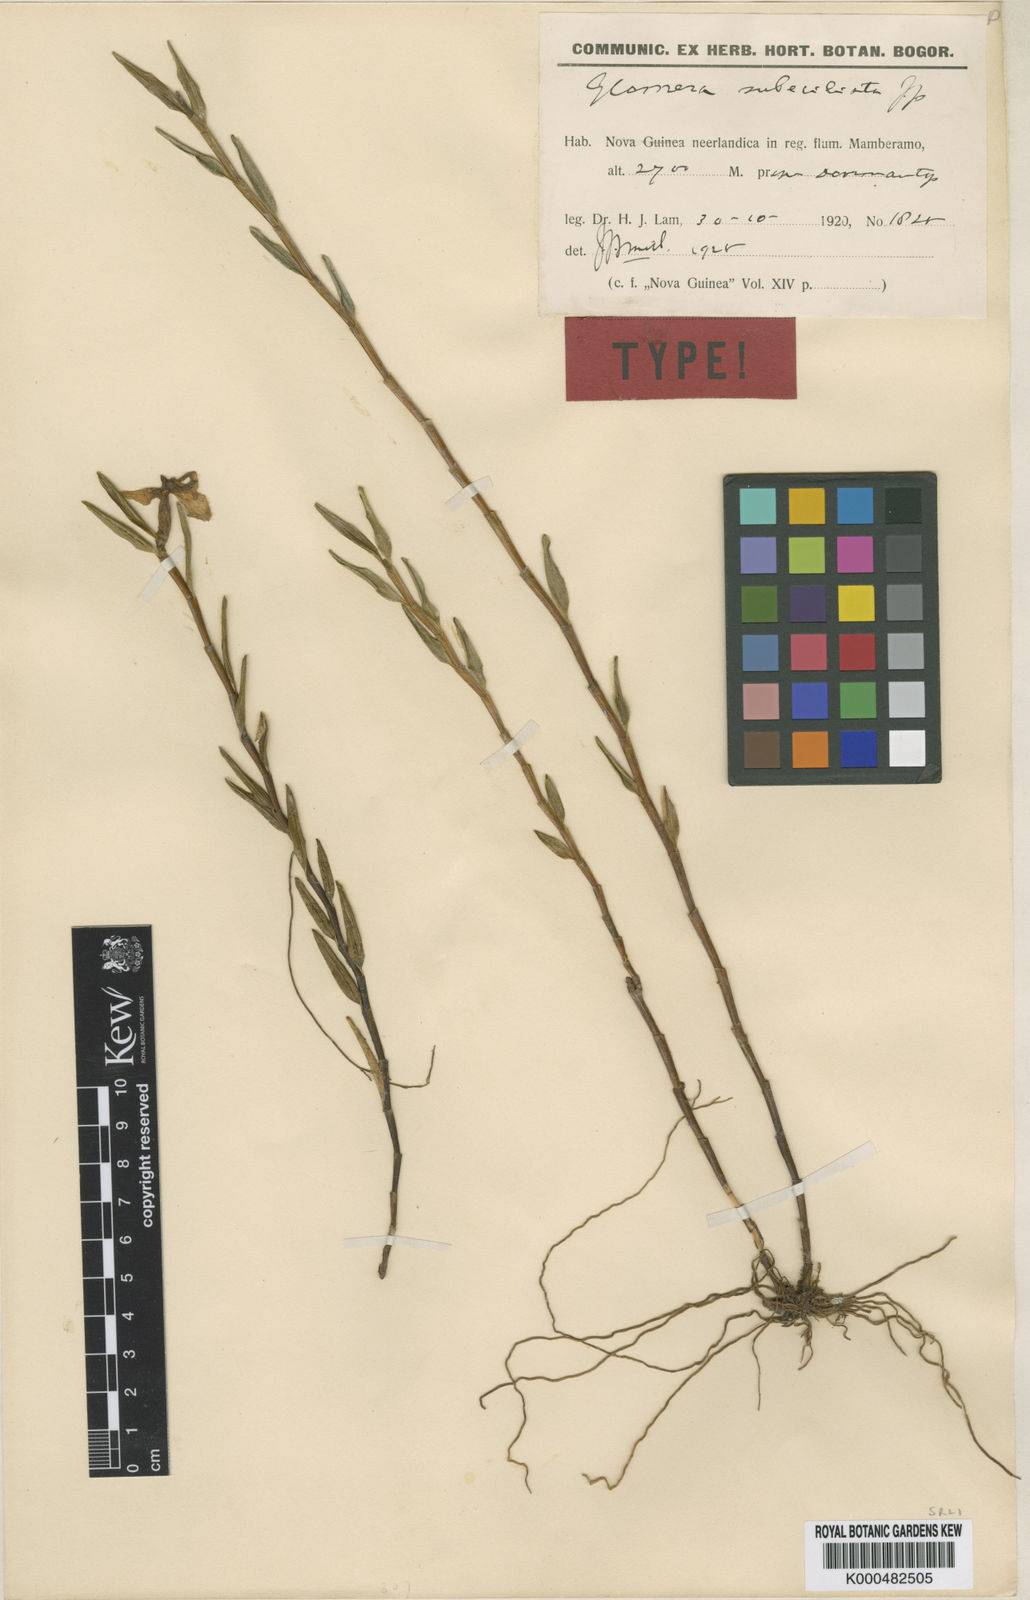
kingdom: Plantae
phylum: Tracheophyta
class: Liliopsida
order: Asparagales
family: Orchidaceae
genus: Glomera
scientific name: Glomera compressa
